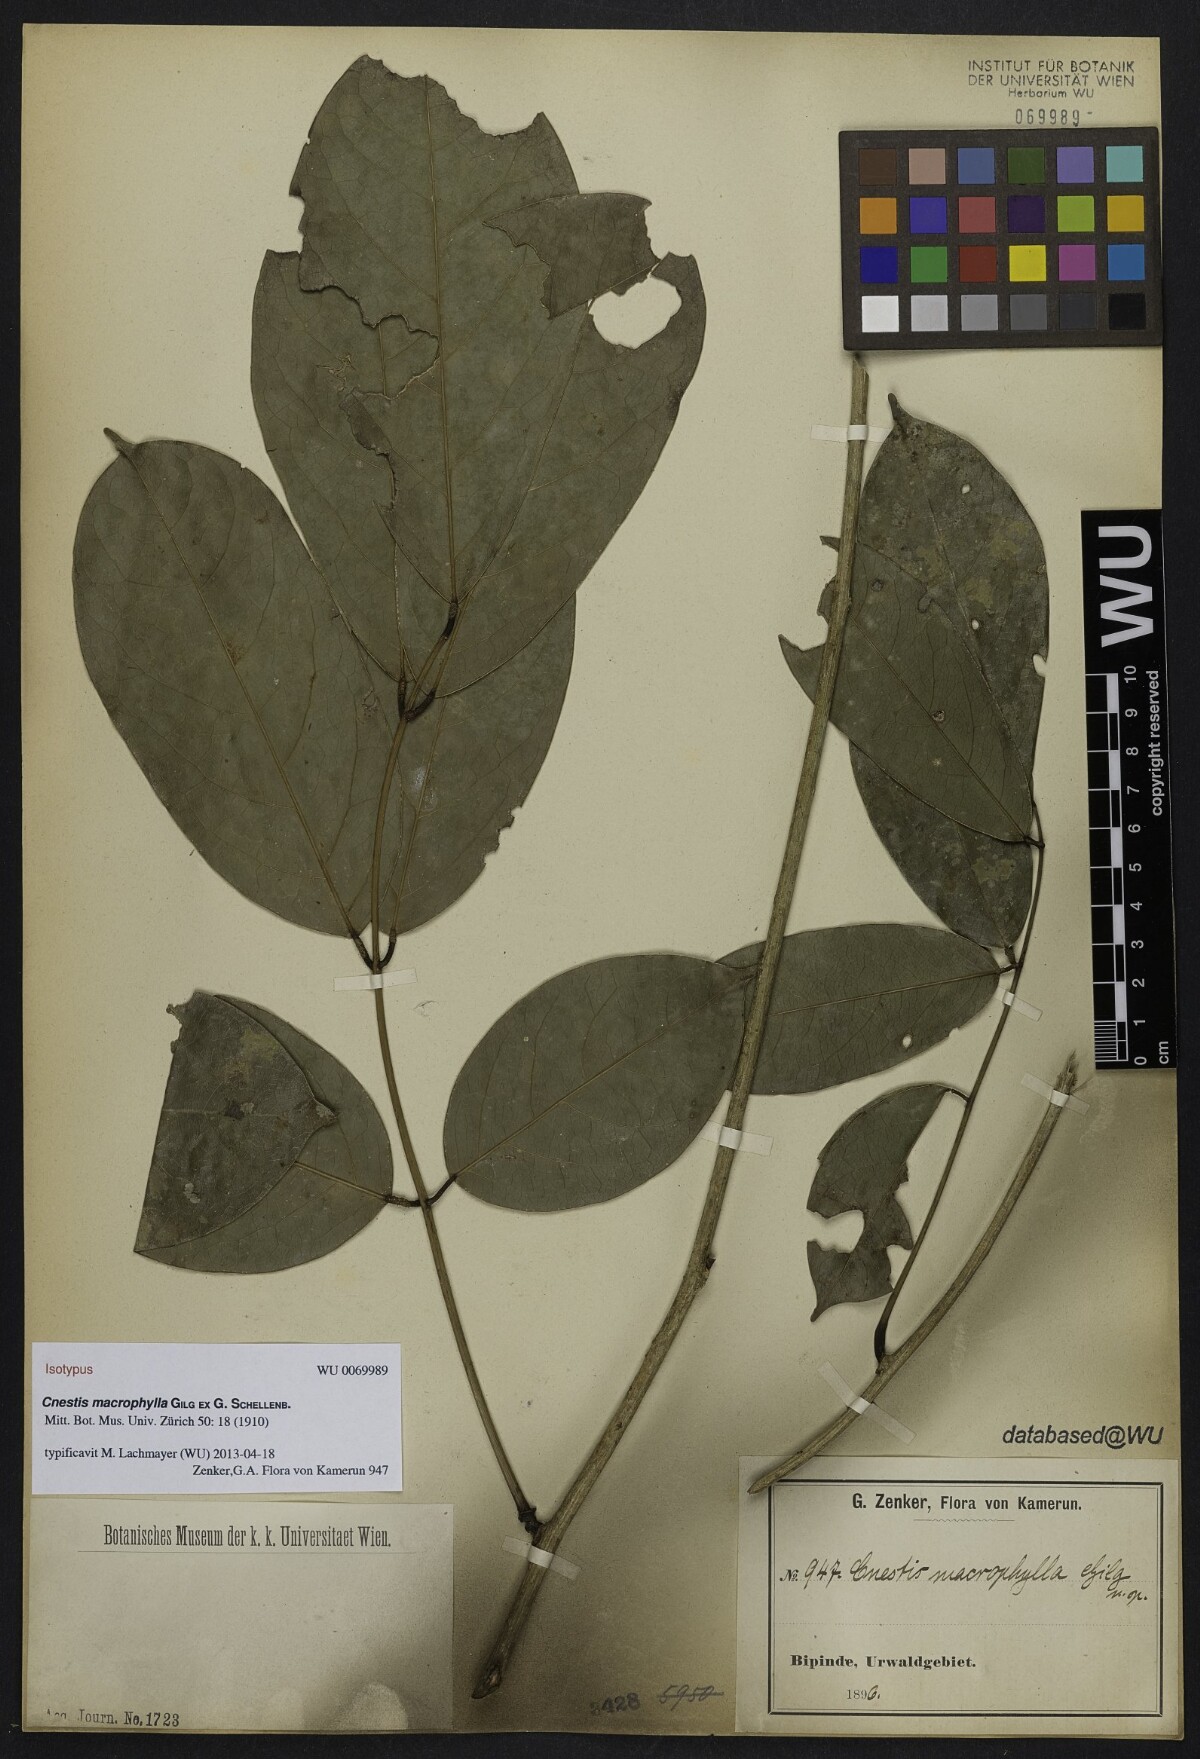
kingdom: Plantae
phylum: Tracheophyta
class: Magnoliopsida
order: Oxalidales
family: Connaraceae
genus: Cnestis
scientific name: Cnestis macrophylla
